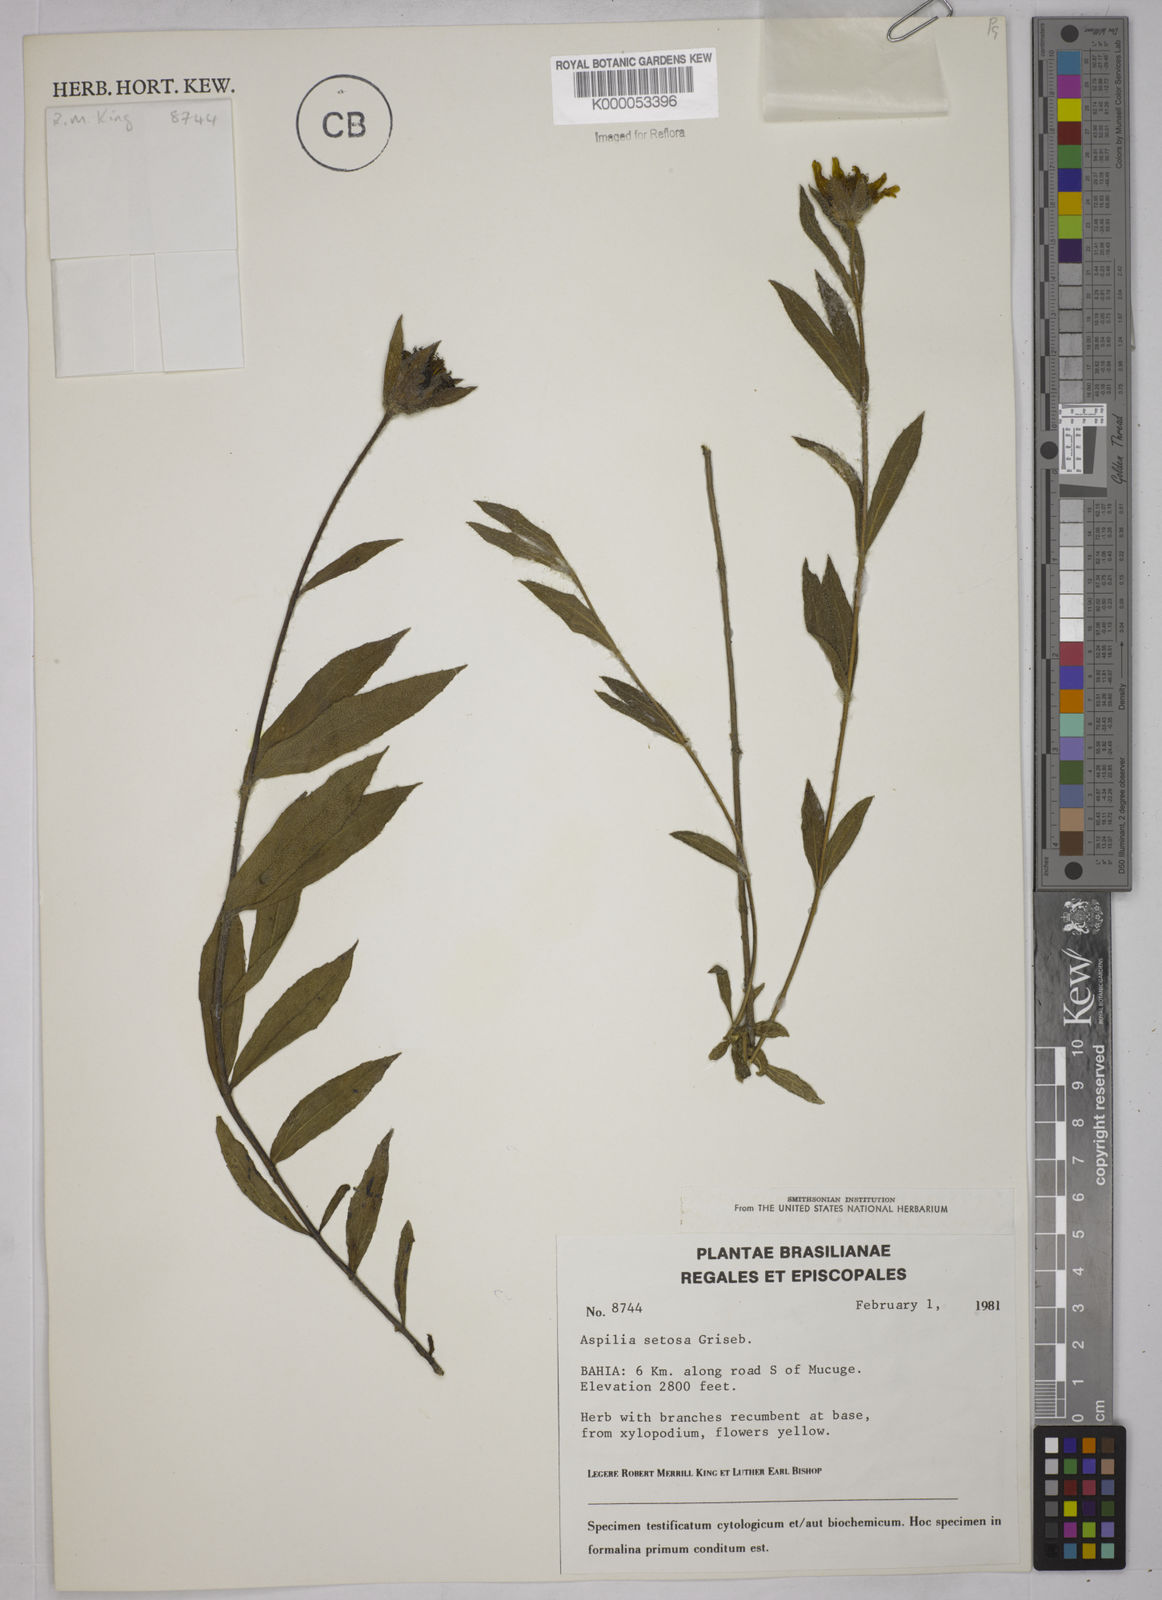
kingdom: Plantae
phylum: Tracheophyta
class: Magnoliopsida
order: Asterales
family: Asteraceae
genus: Wedelia
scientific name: Wedelia montevidensis
